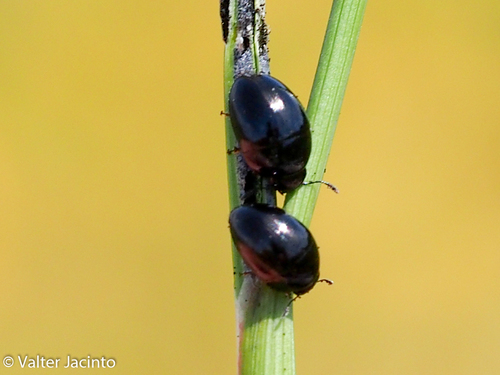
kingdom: Animalia
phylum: Arthropoda
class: Insecta
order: Coleoptera
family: Phalacridae
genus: Phalacrus
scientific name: Phalacrus
